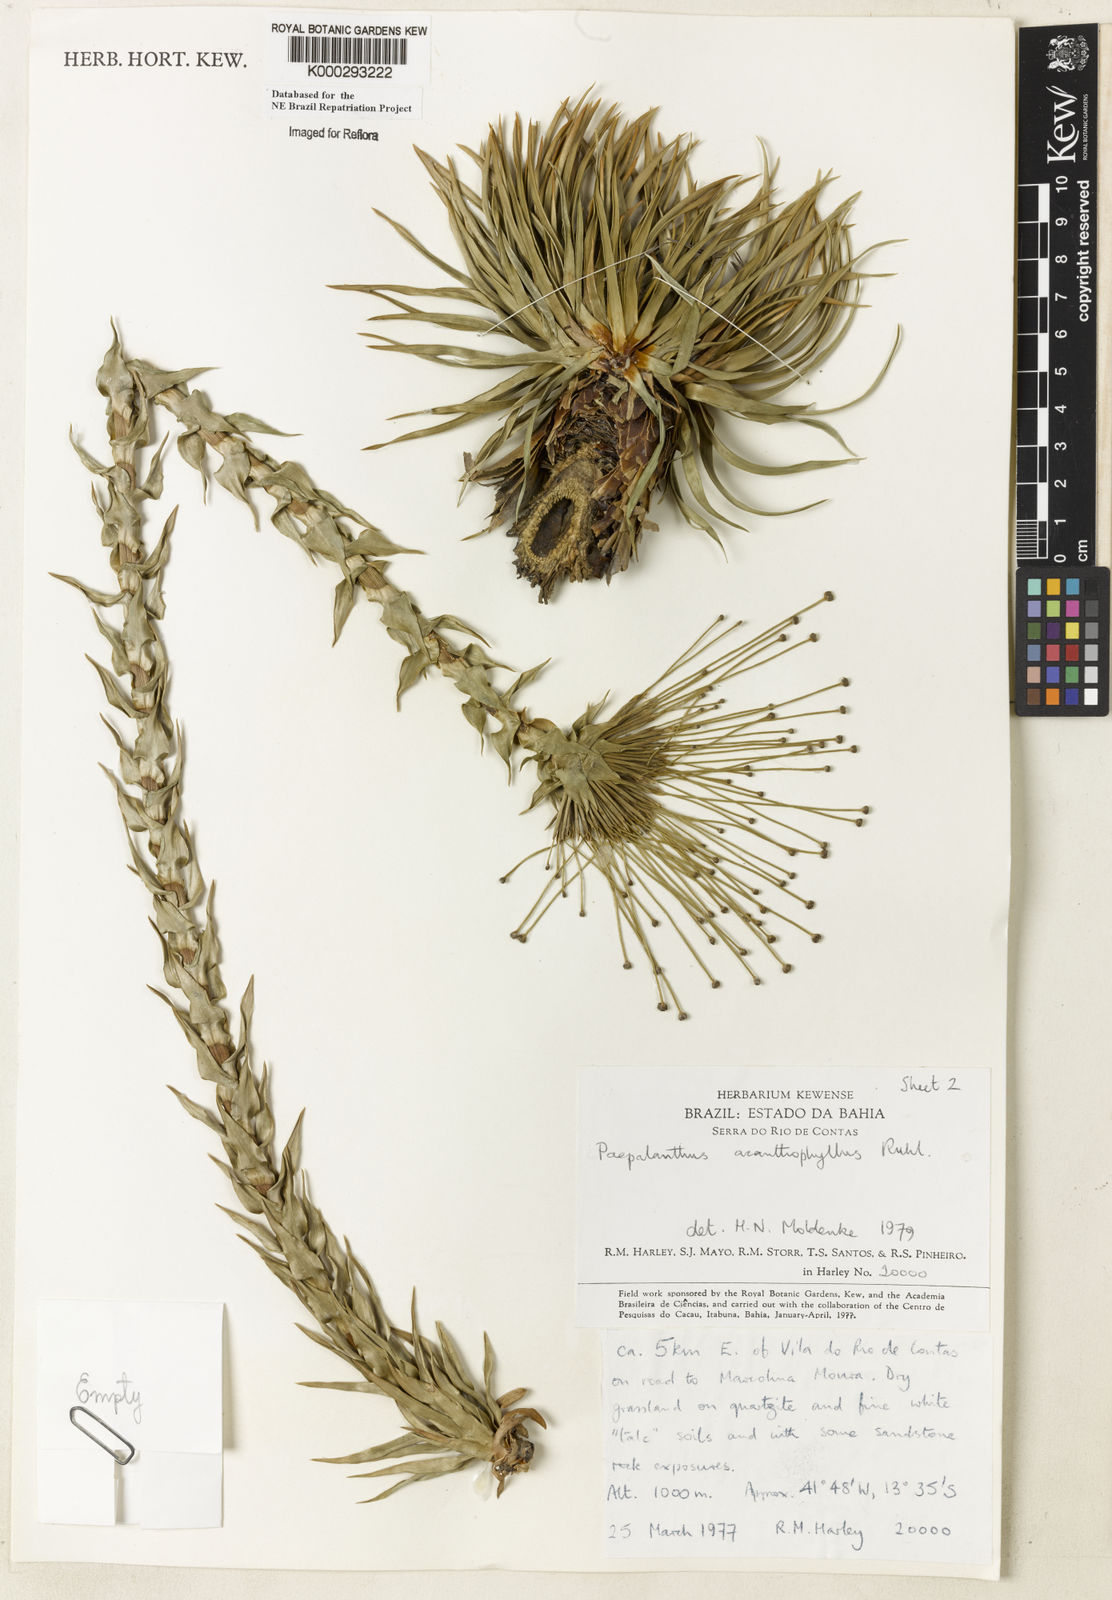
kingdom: Plantae
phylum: Tracheophyta
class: Liliopsida
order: Poales
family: Eriocaulaceae
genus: Paepalanthus
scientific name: Paepalanthus
